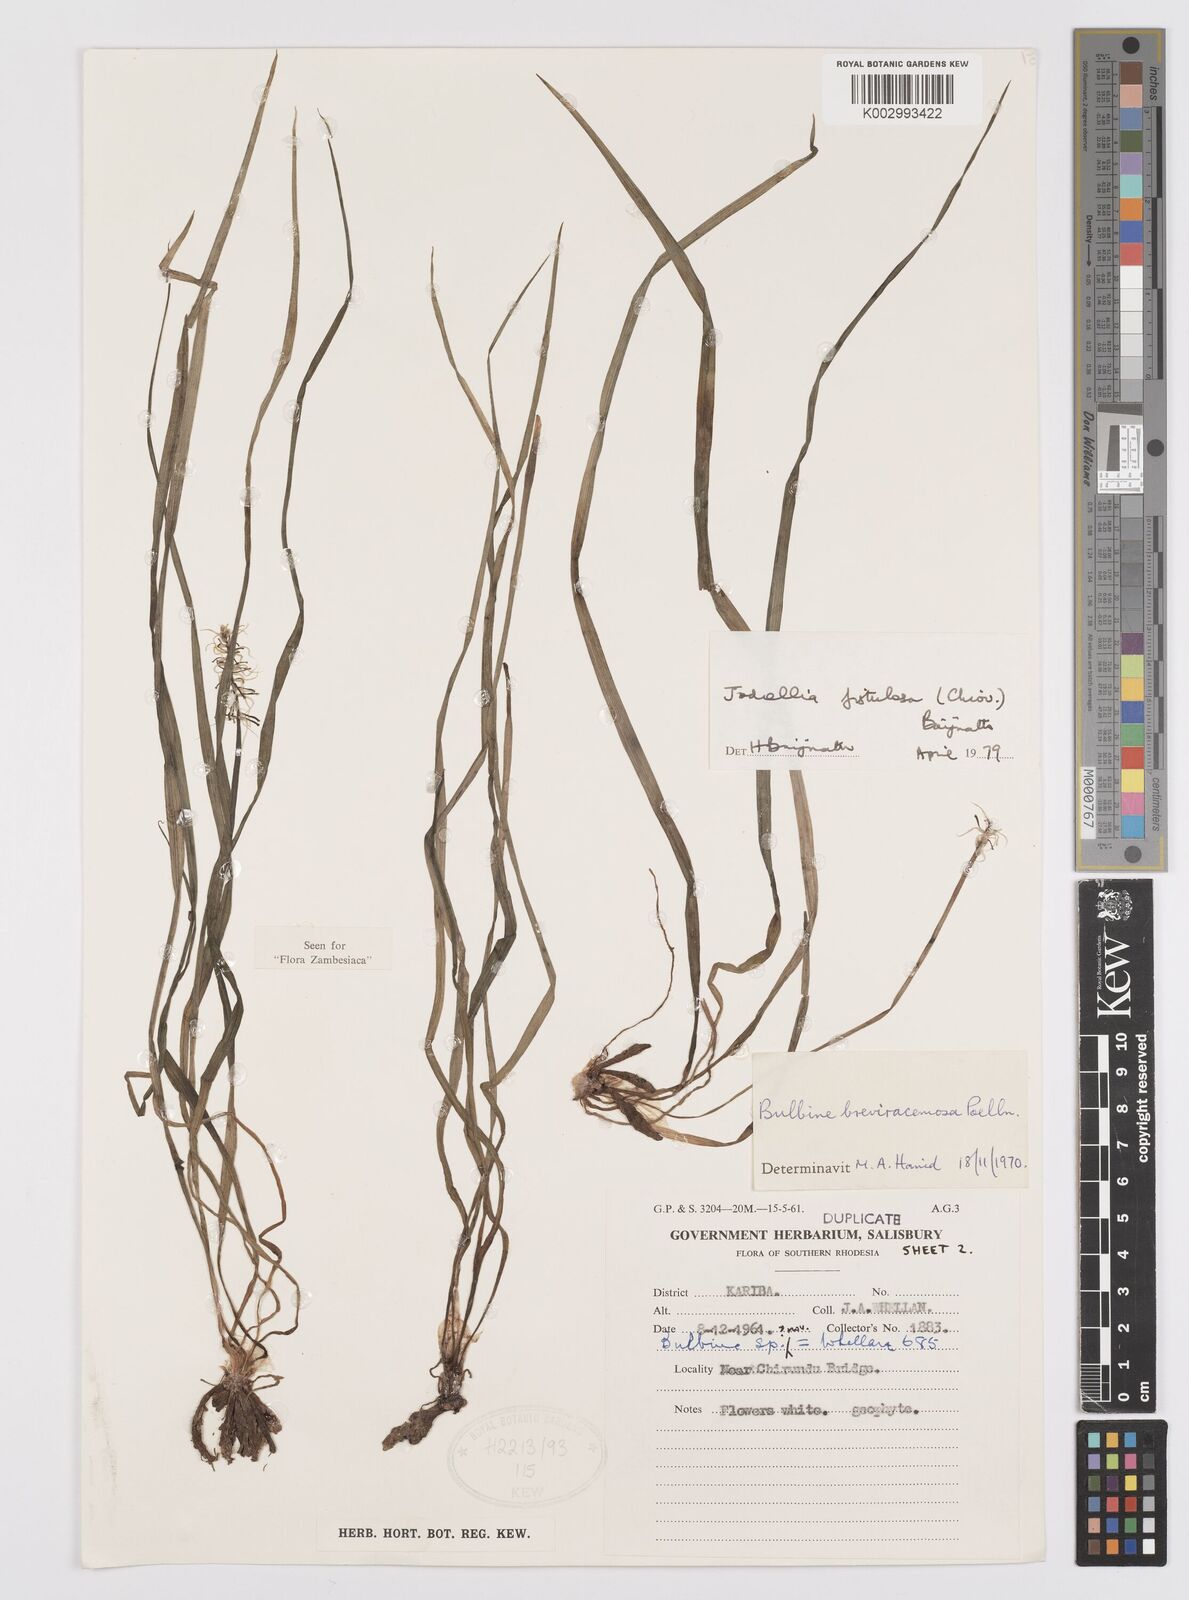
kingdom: Plantae
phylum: Tracheophyta
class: Liliopsida
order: Asparagales
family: Asphodelaceae
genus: Bulbine
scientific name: Bulbine fistulosa
